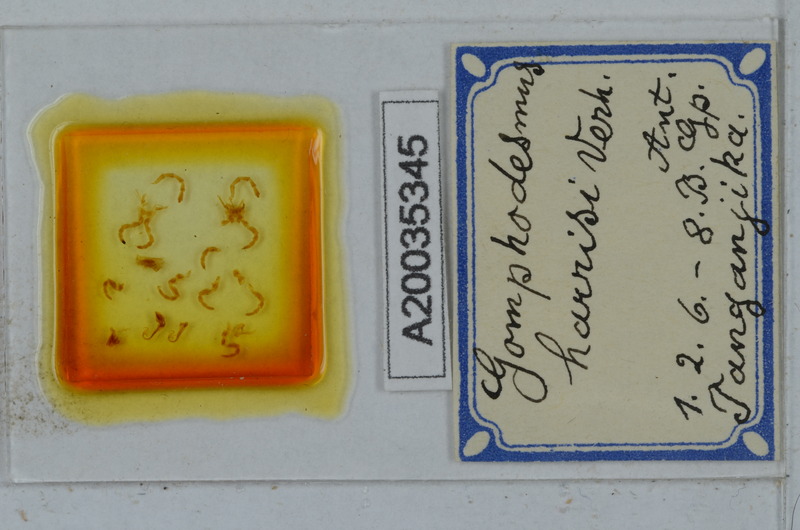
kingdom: Animalia
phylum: Arthropoda
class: Diplopoda
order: Polydesmida
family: Gomphodesmidae
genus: Agrophogonus
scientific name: Agrophogonus harrisi
